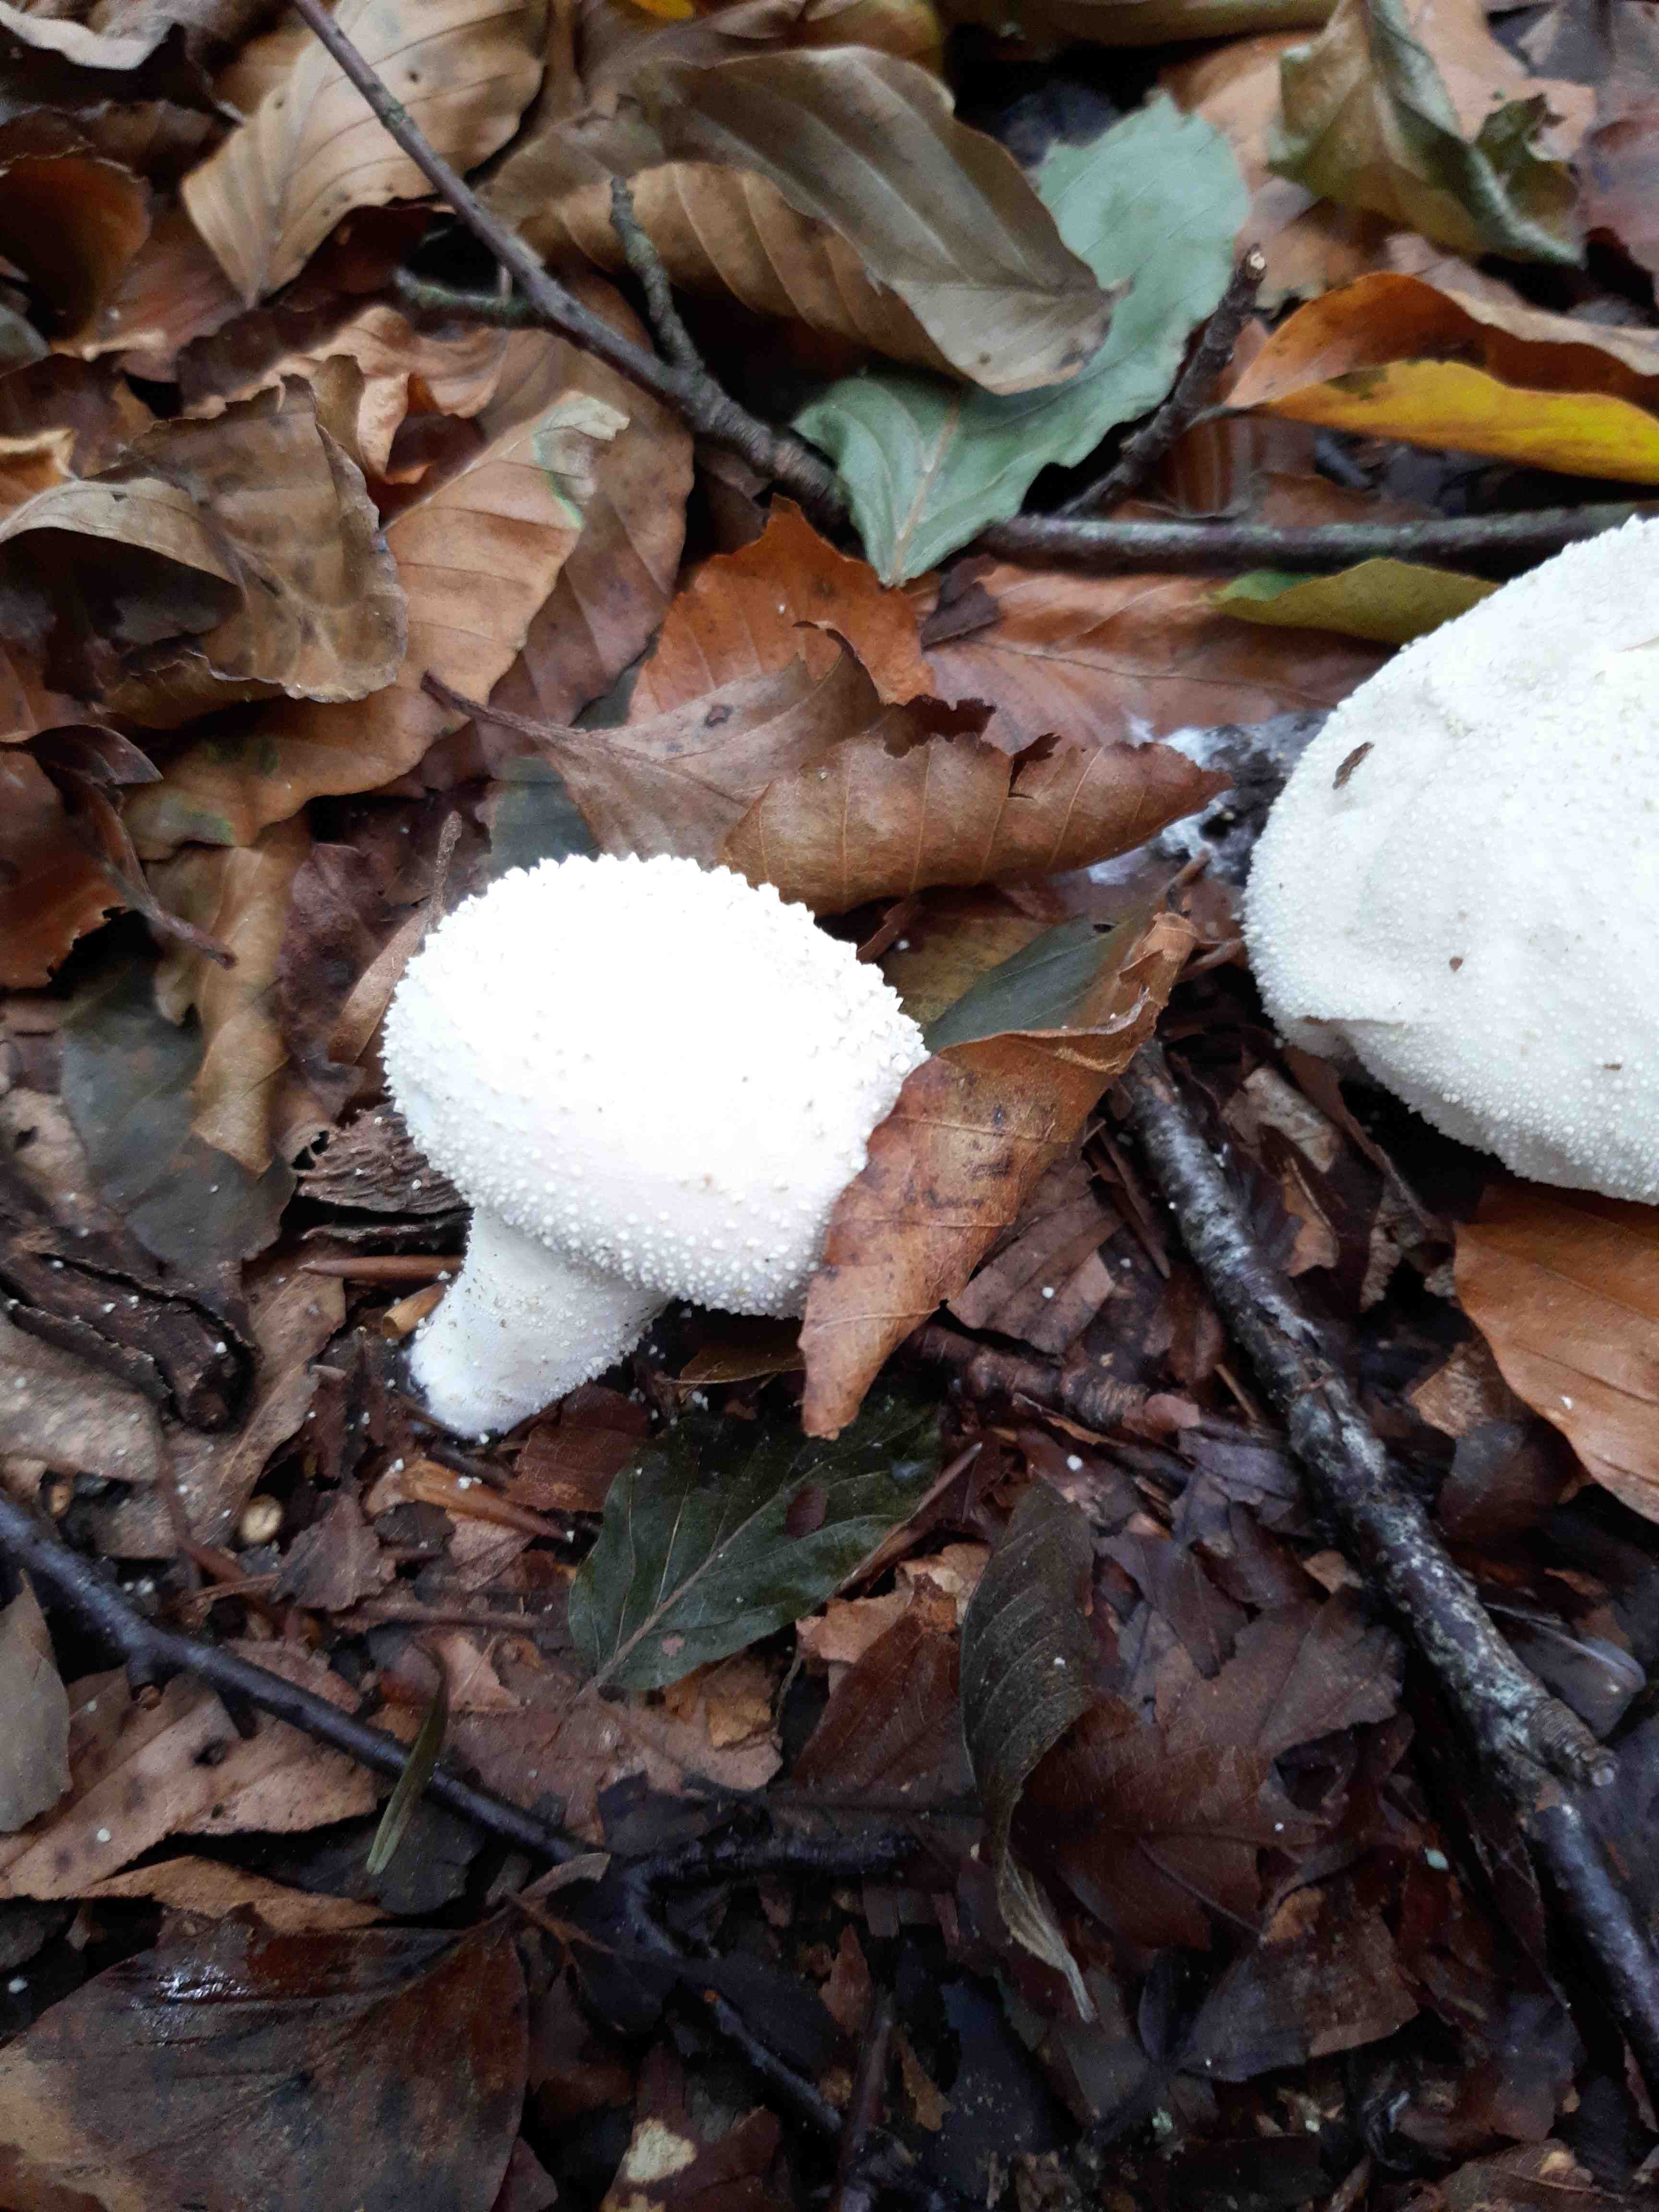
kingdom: Fungi
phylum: Basidiomycota
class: Agaricomycetes
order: Agaricales
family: Lycoperdaceae
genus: Lycoperdon
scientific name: Lycoperdon perlatum
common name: krystal-støvbold
